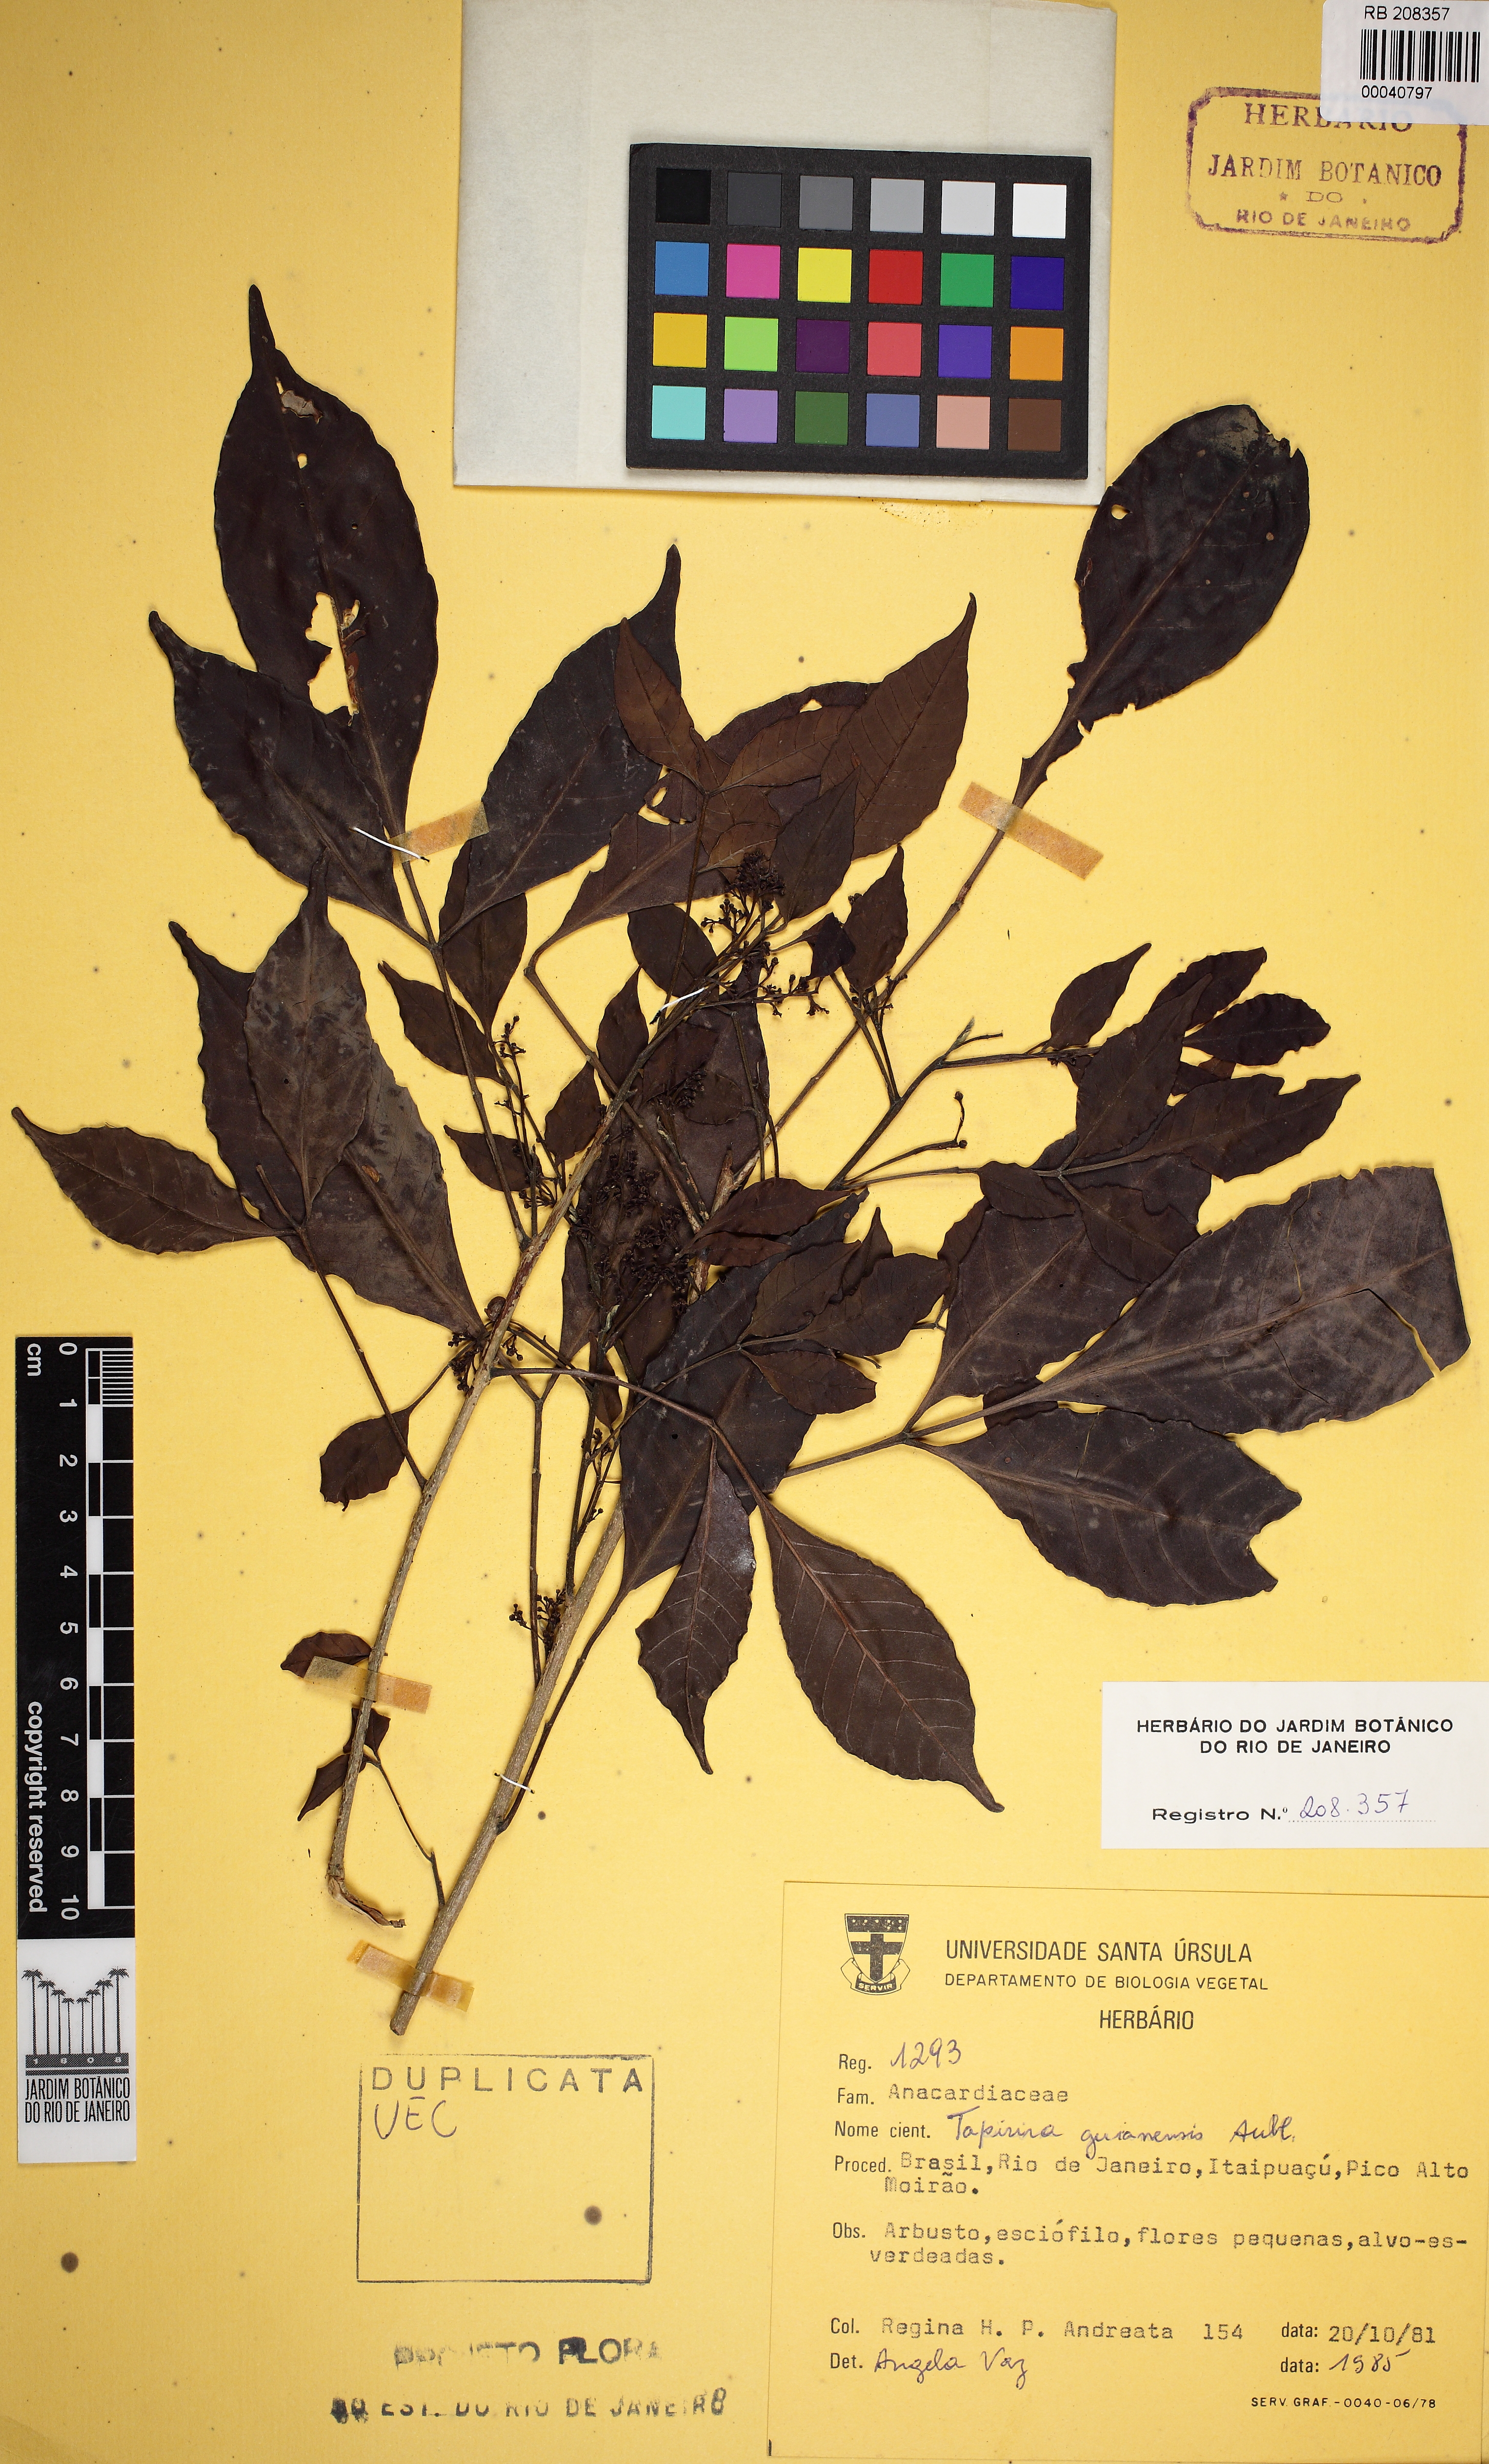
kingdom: Plantae
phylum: Tracheophyta
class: Magnoliopsida
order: Sapindales
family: Anacardiaceae
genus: Tapirira
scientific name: Tapirira guianensis
